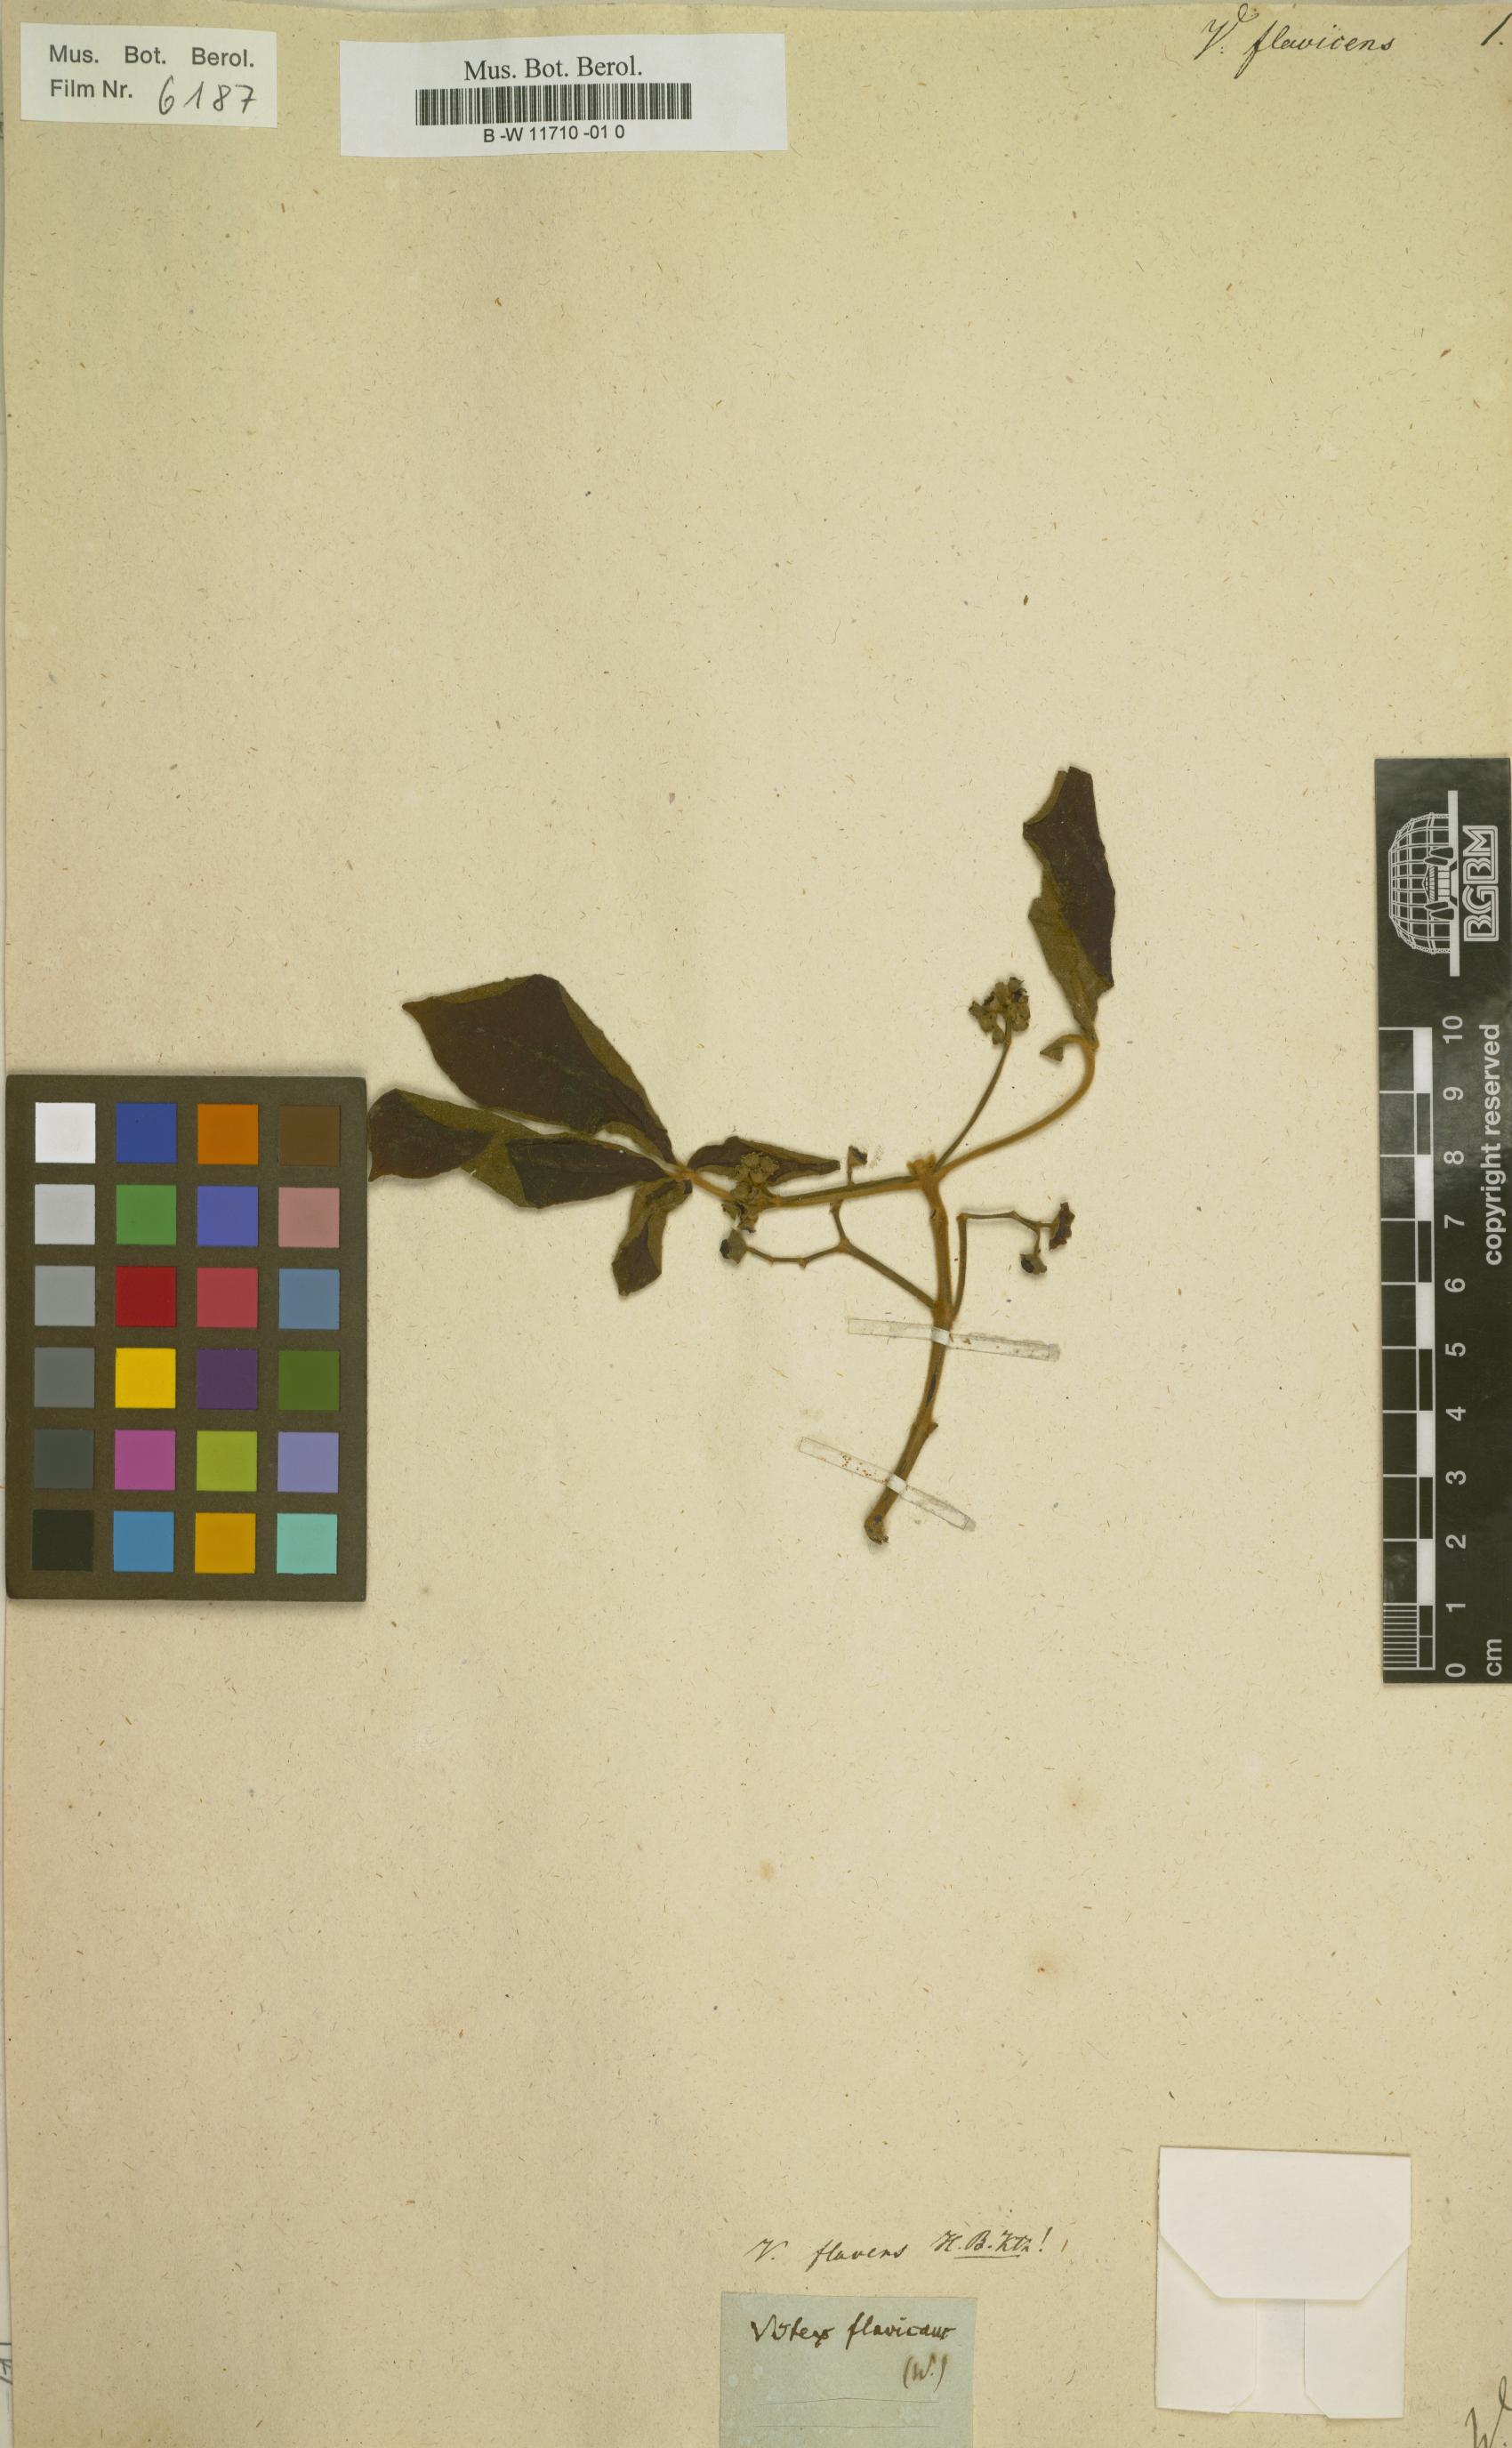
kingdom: Plantae
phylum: Tracheophyta
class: Magnoliopsida
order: Lamiales
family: Lamiaceae
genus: Vitex
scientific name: Vitex
